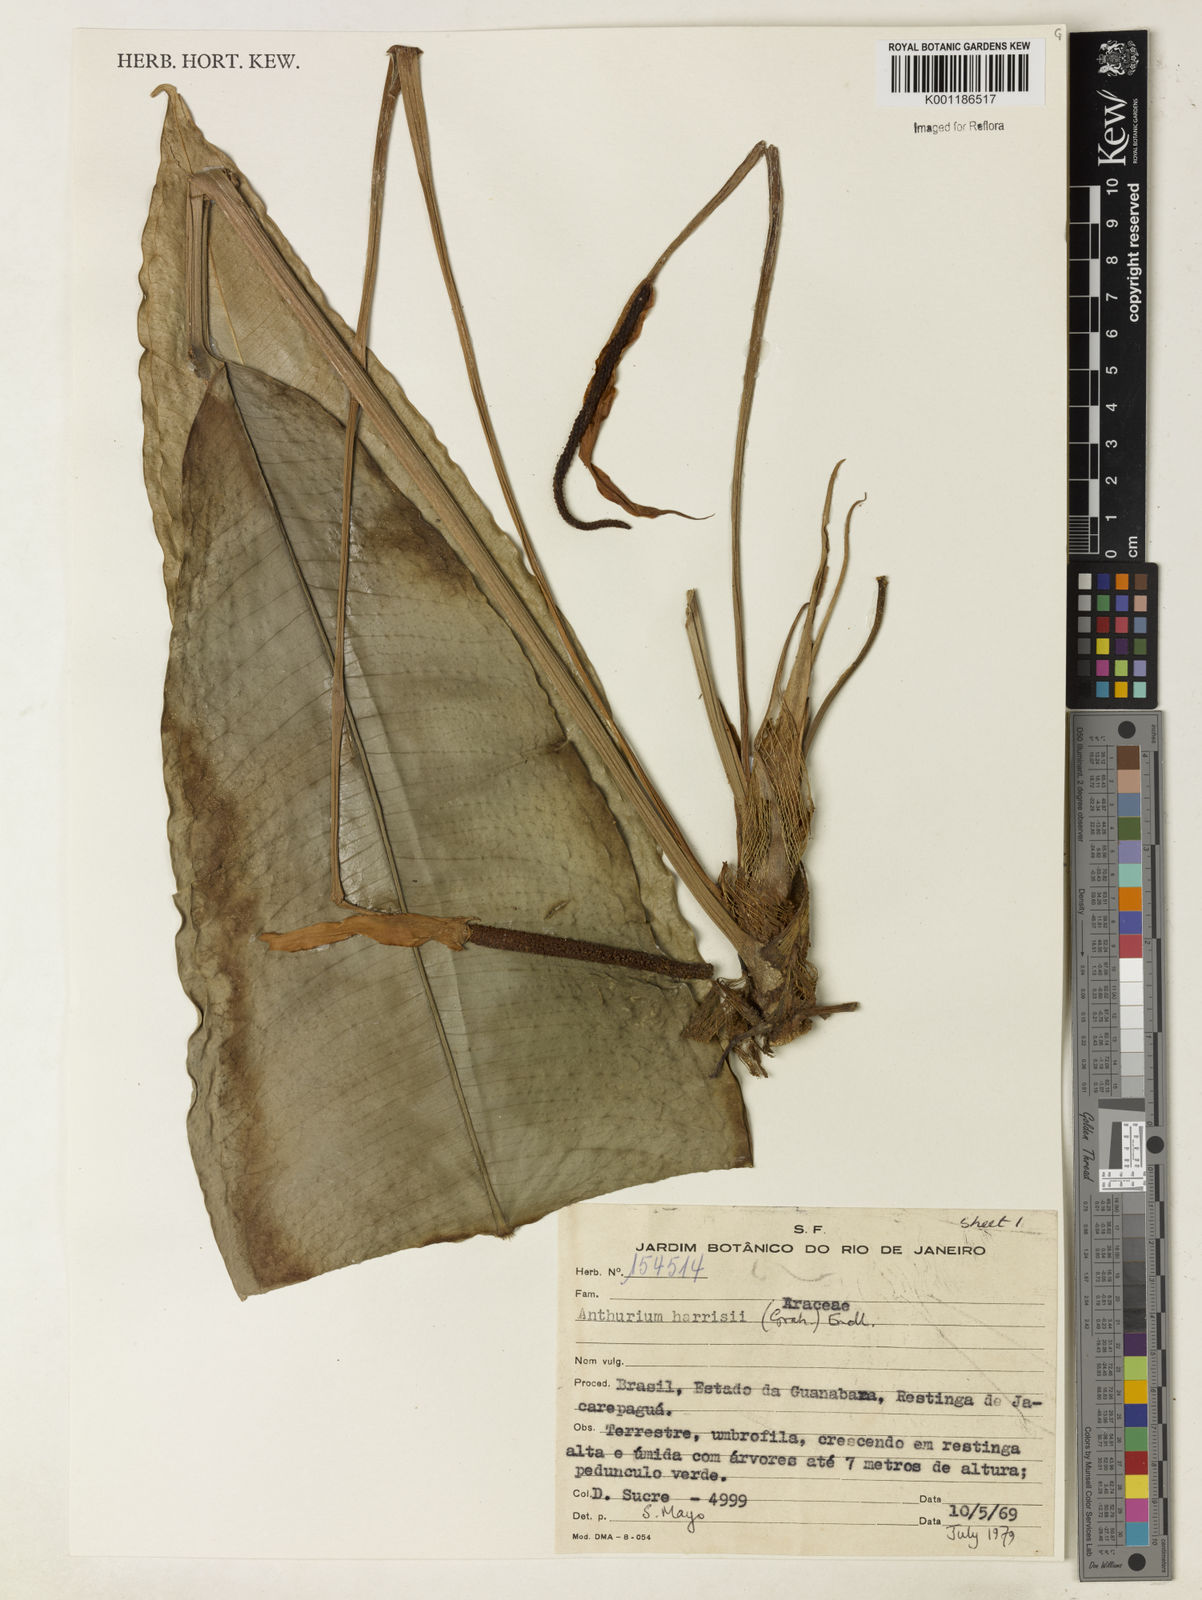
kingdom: Plantae
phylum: Tracheophyta
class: Liliopsida
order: Alismatales
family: Araceae
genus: Anthurium
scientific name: Anthurium harrisii
